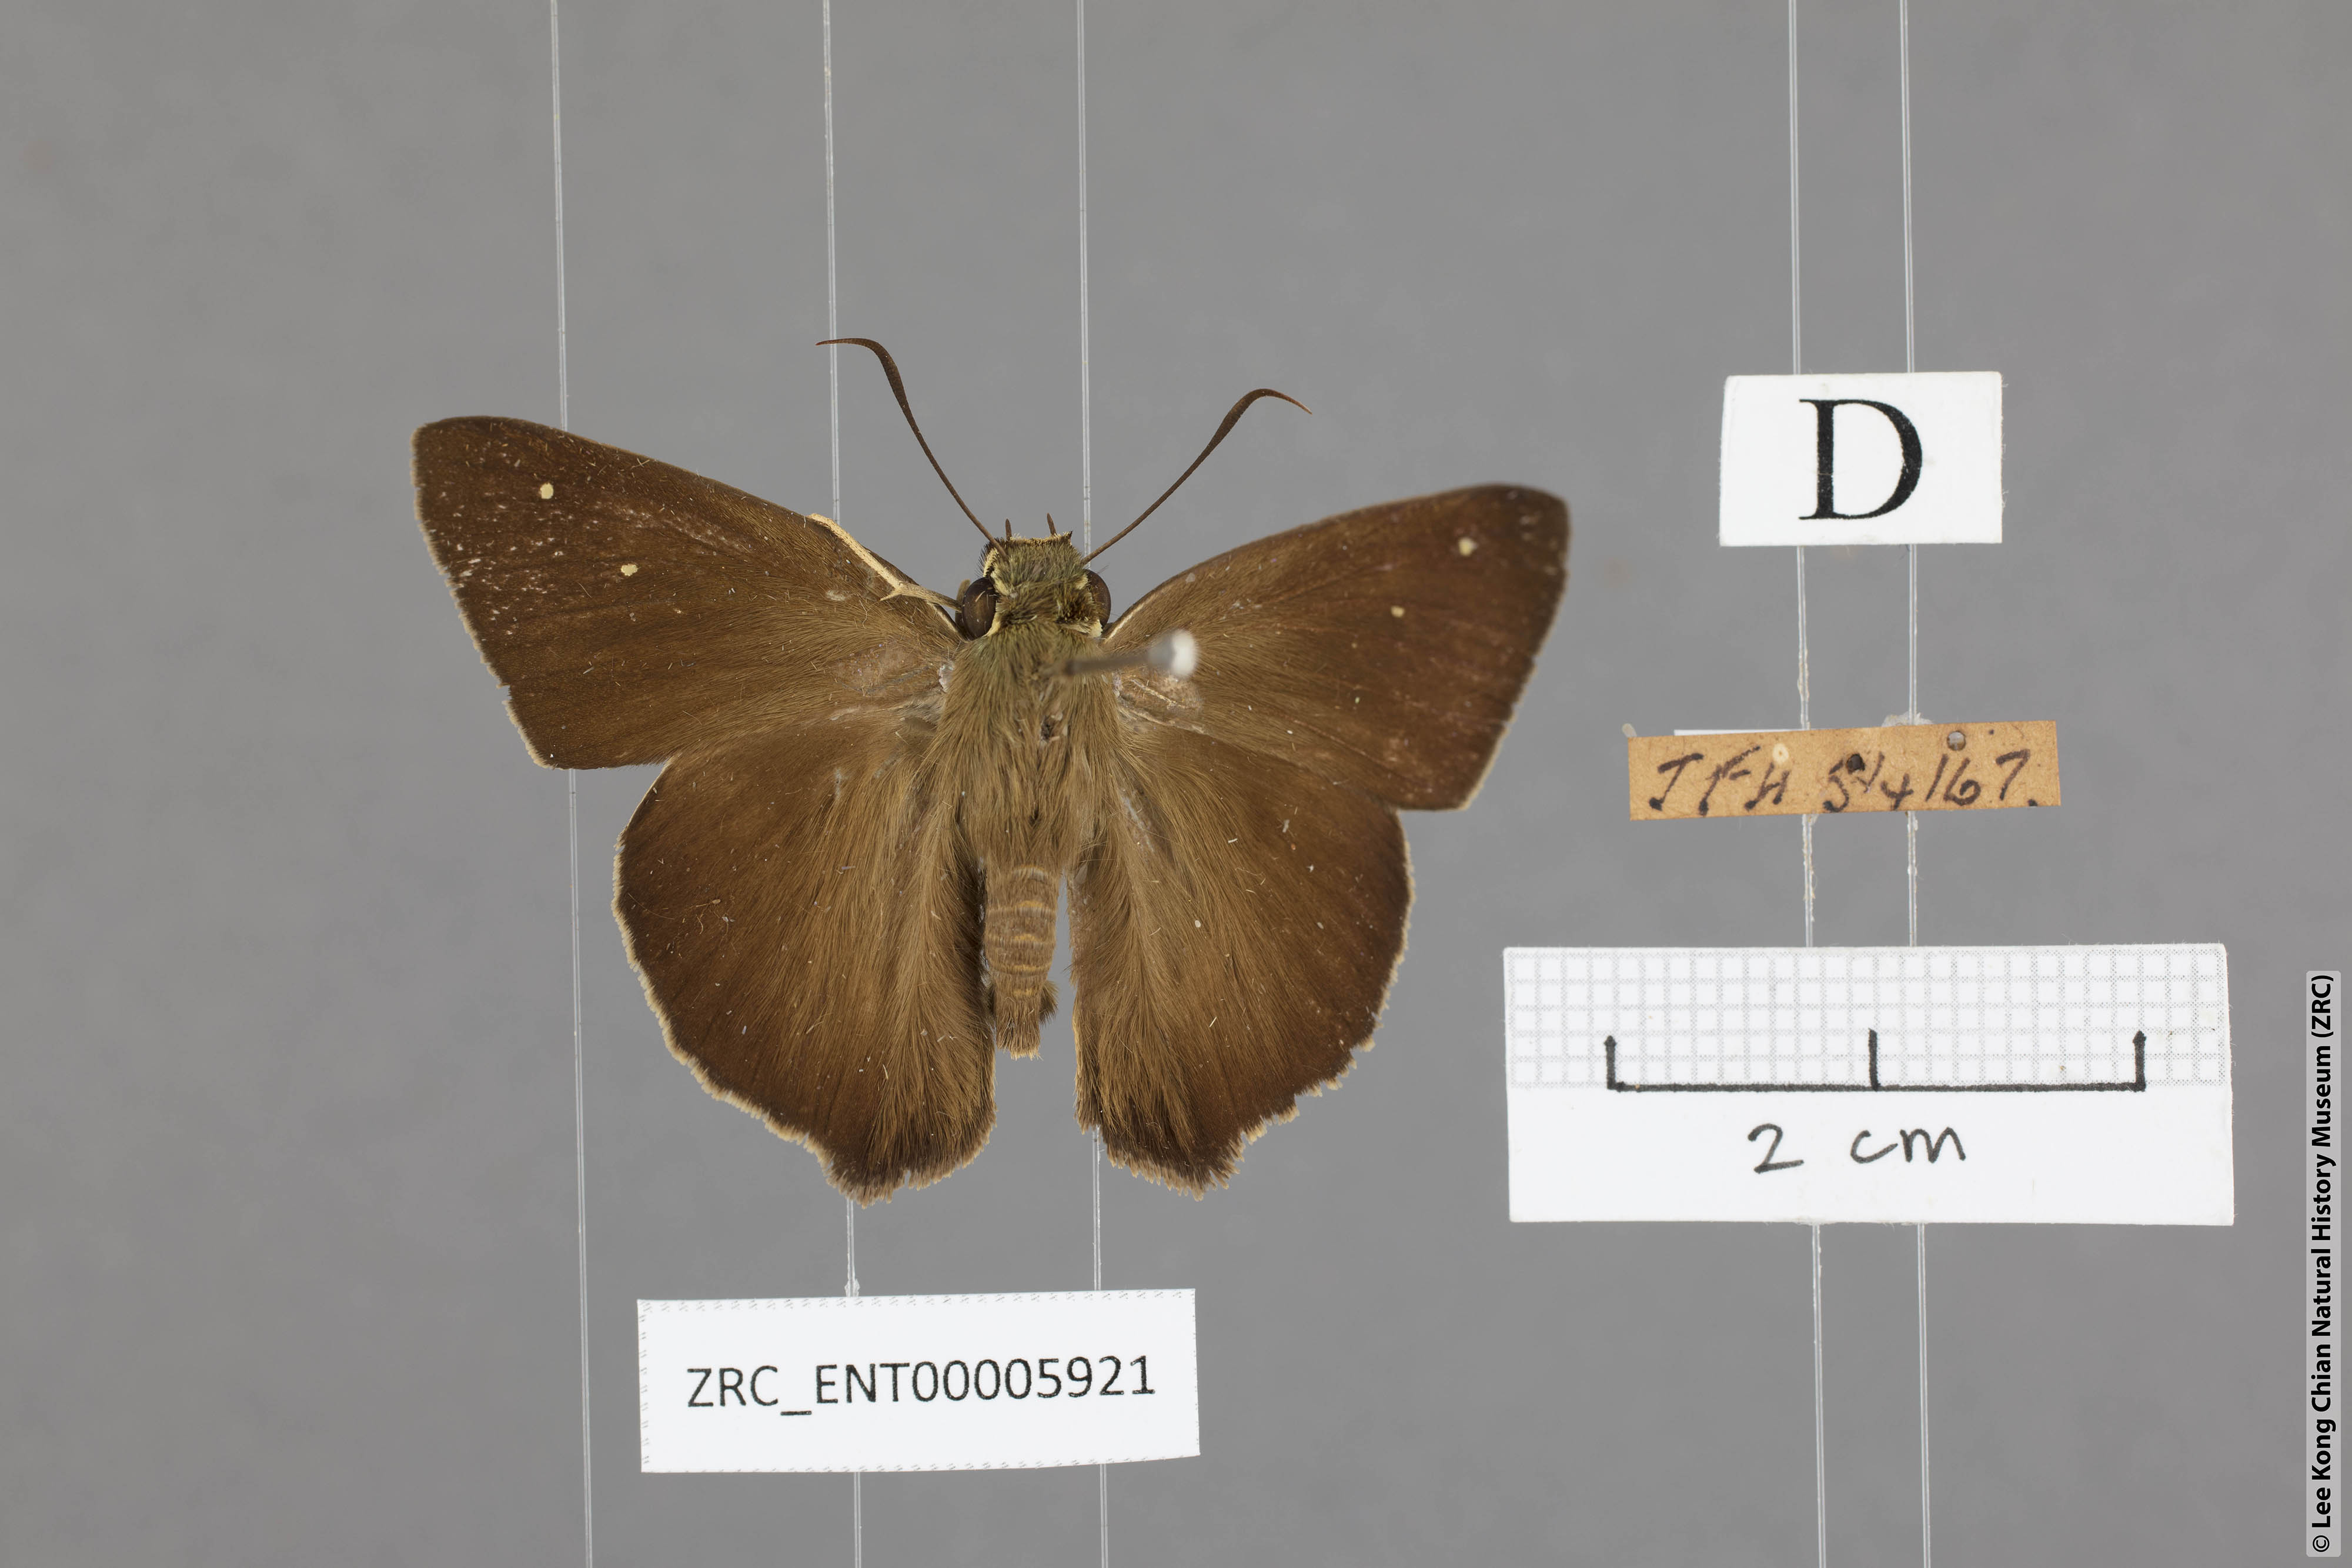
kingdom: Animalia
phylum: Arthropoda
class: Insecta
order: Lepidoptera
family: Hesperiidae
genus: Hasora
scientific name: Hasora vitta
